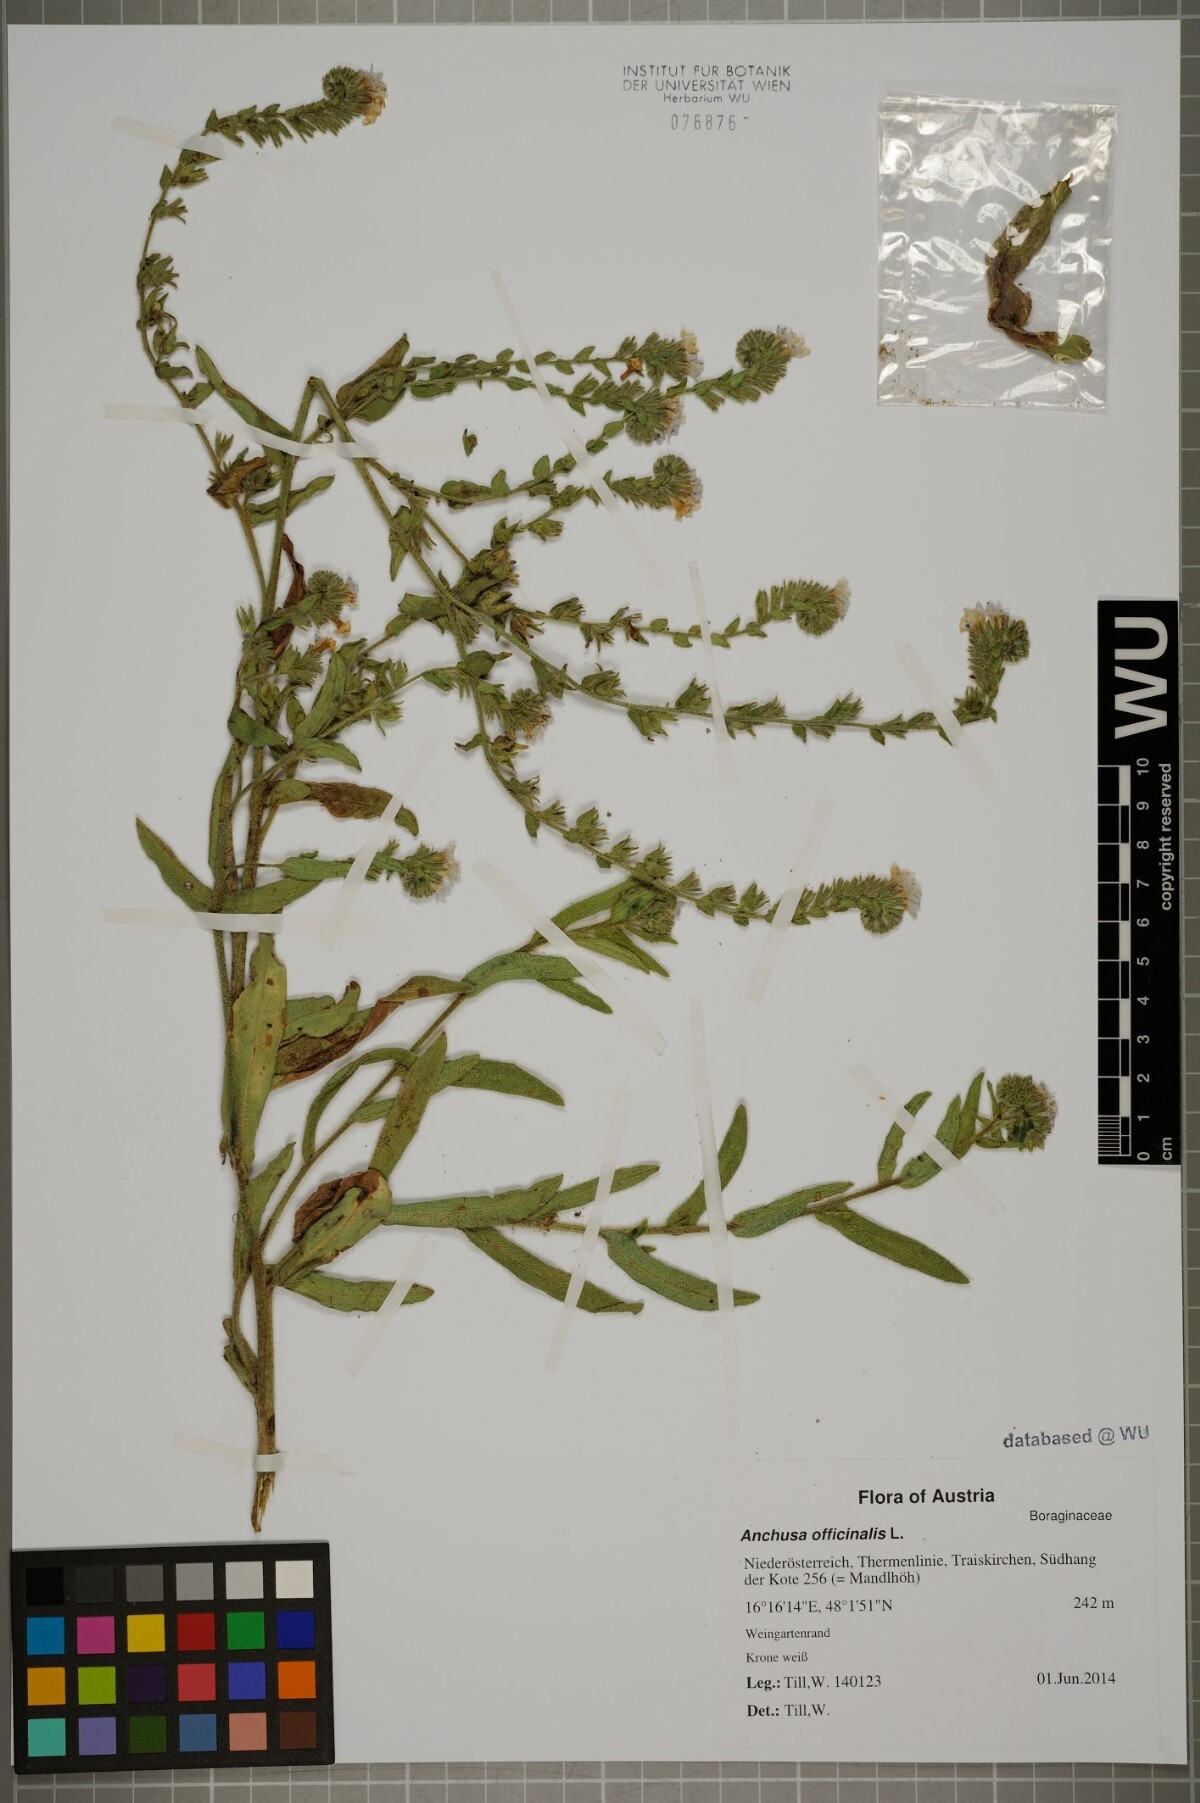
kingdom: Plantae
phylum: Tracheophyta
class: Magnoliopsida
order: Boraginales
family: Boraginaceae
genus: Anchusa
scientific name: Anchusa officinalis
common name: Alkanet
